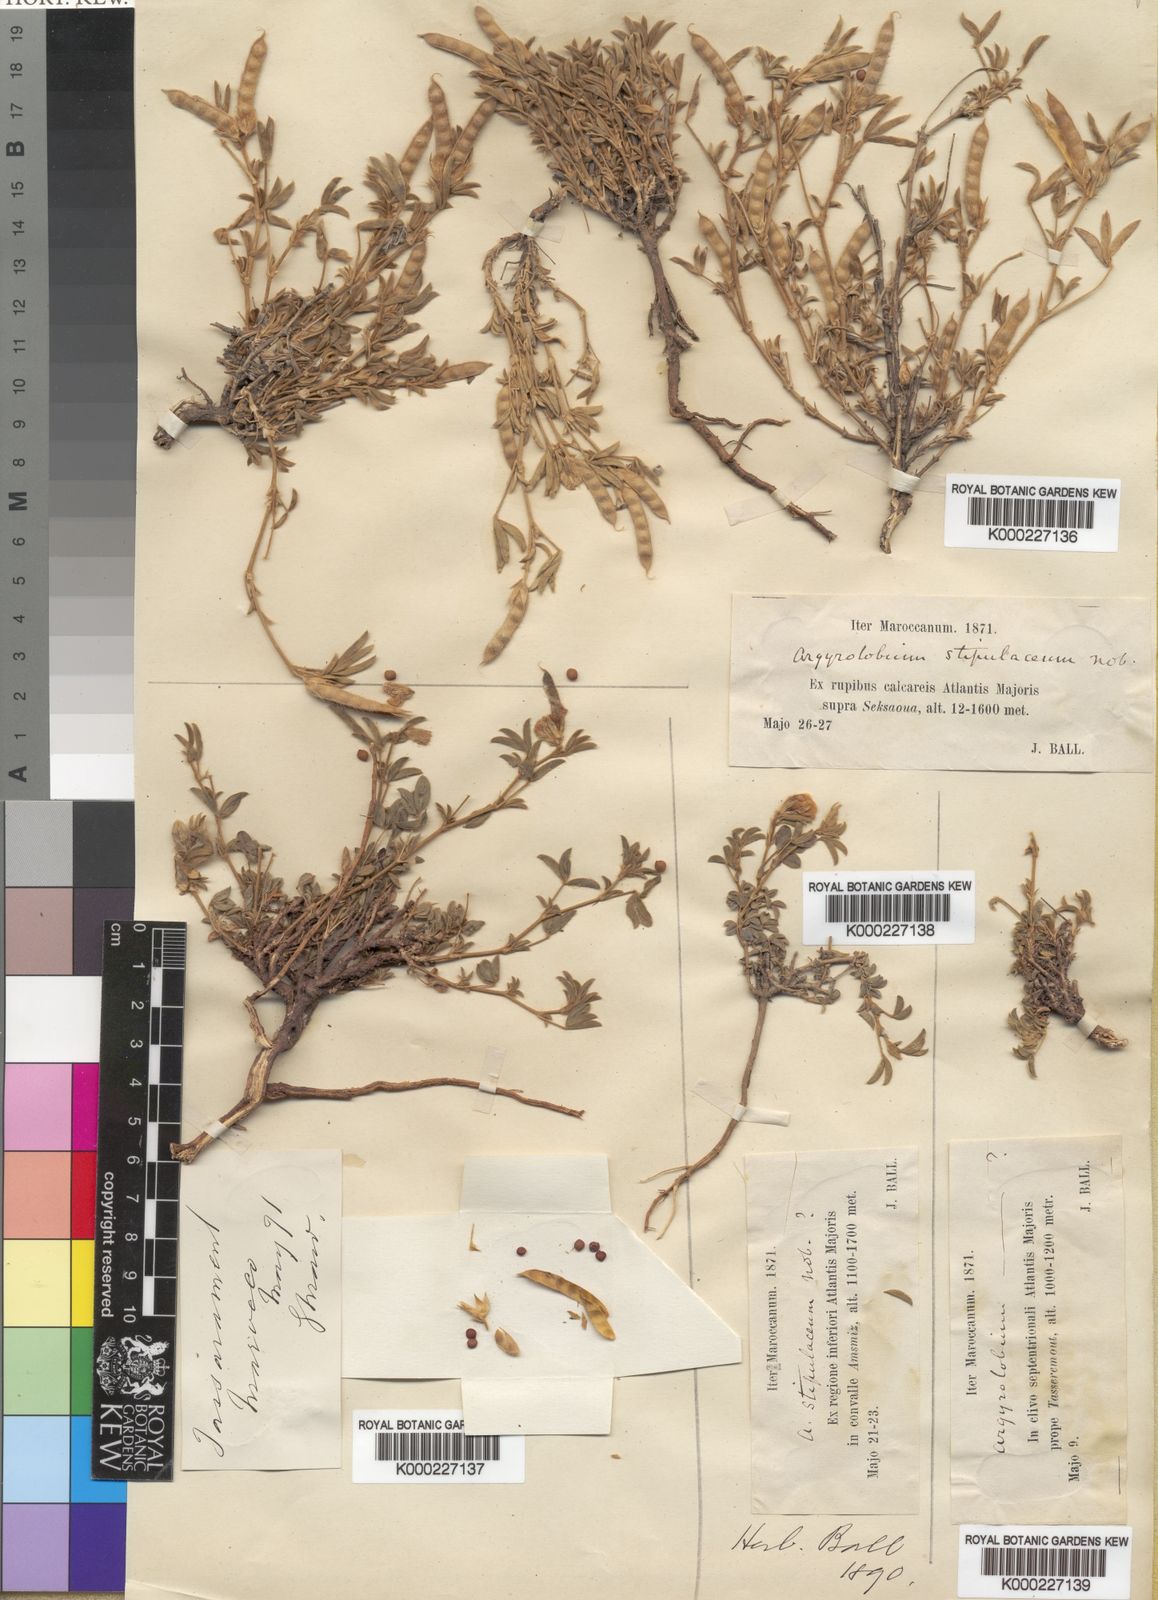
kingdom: Plantae
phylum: Tracheophyta
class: Magnoliopsida
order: Fabales
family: Fabaceae
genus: Argyrolobium
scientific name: Argyrolobium stipulaceum
